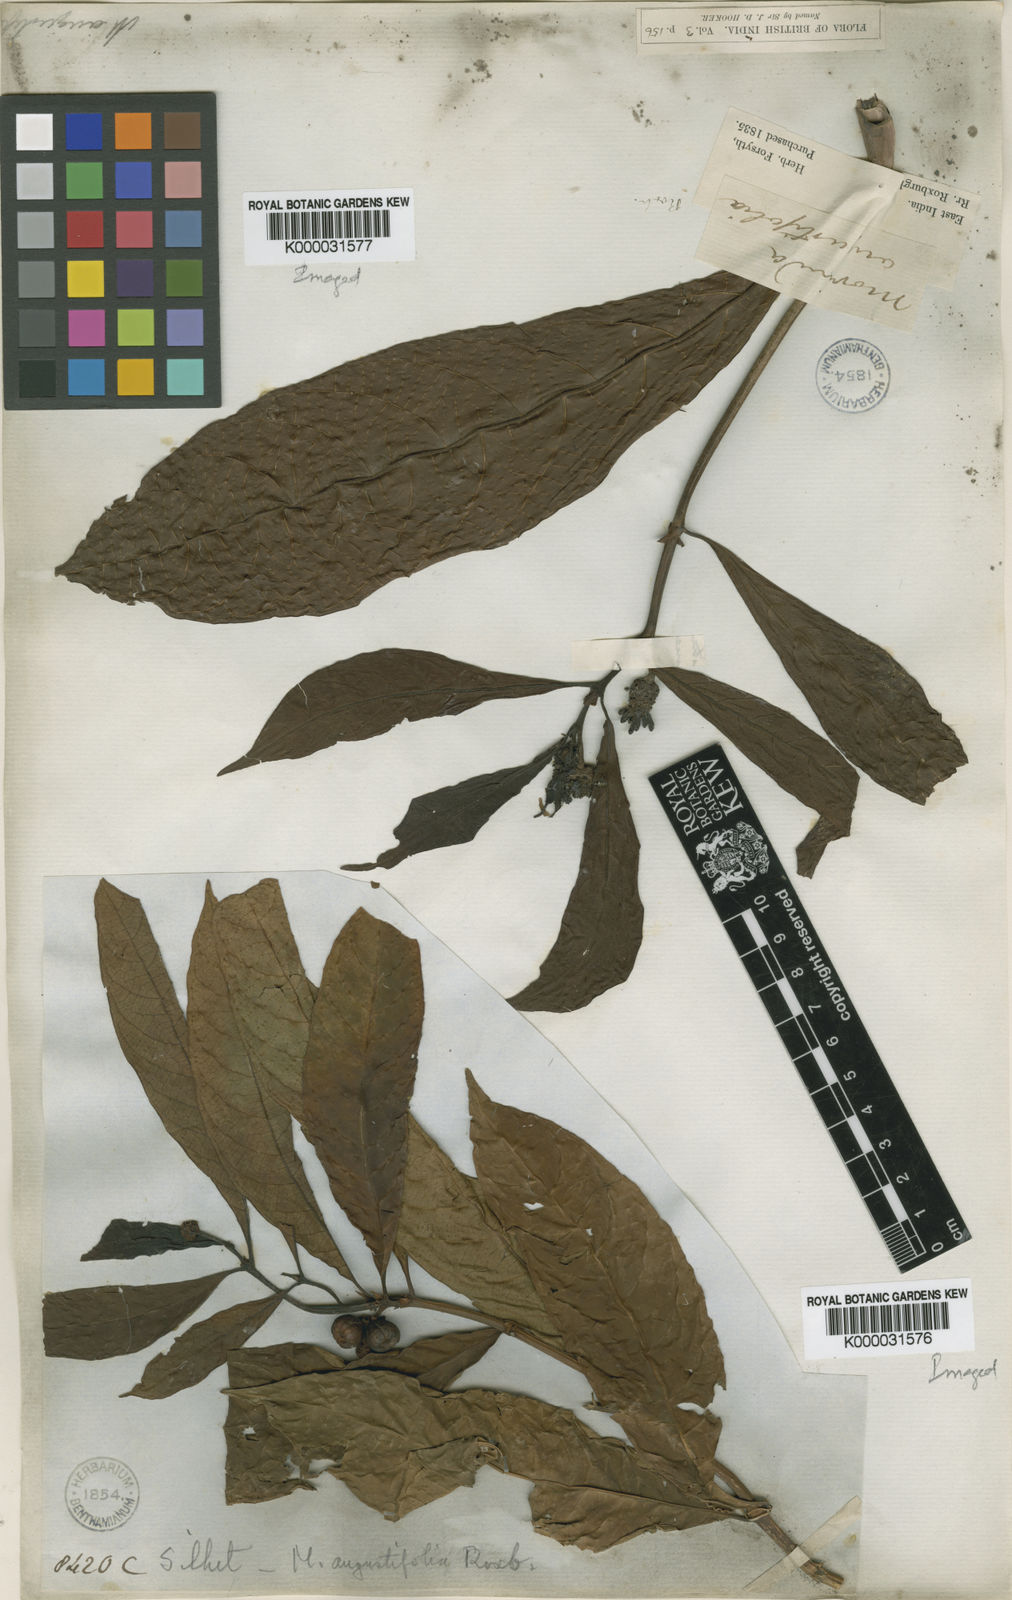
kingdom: Plantae
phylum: Tracheophyta
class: Magnoliopsida
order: Gentianales
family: Rubiaceae
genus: Morinda
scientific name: Morinda angustifolia
